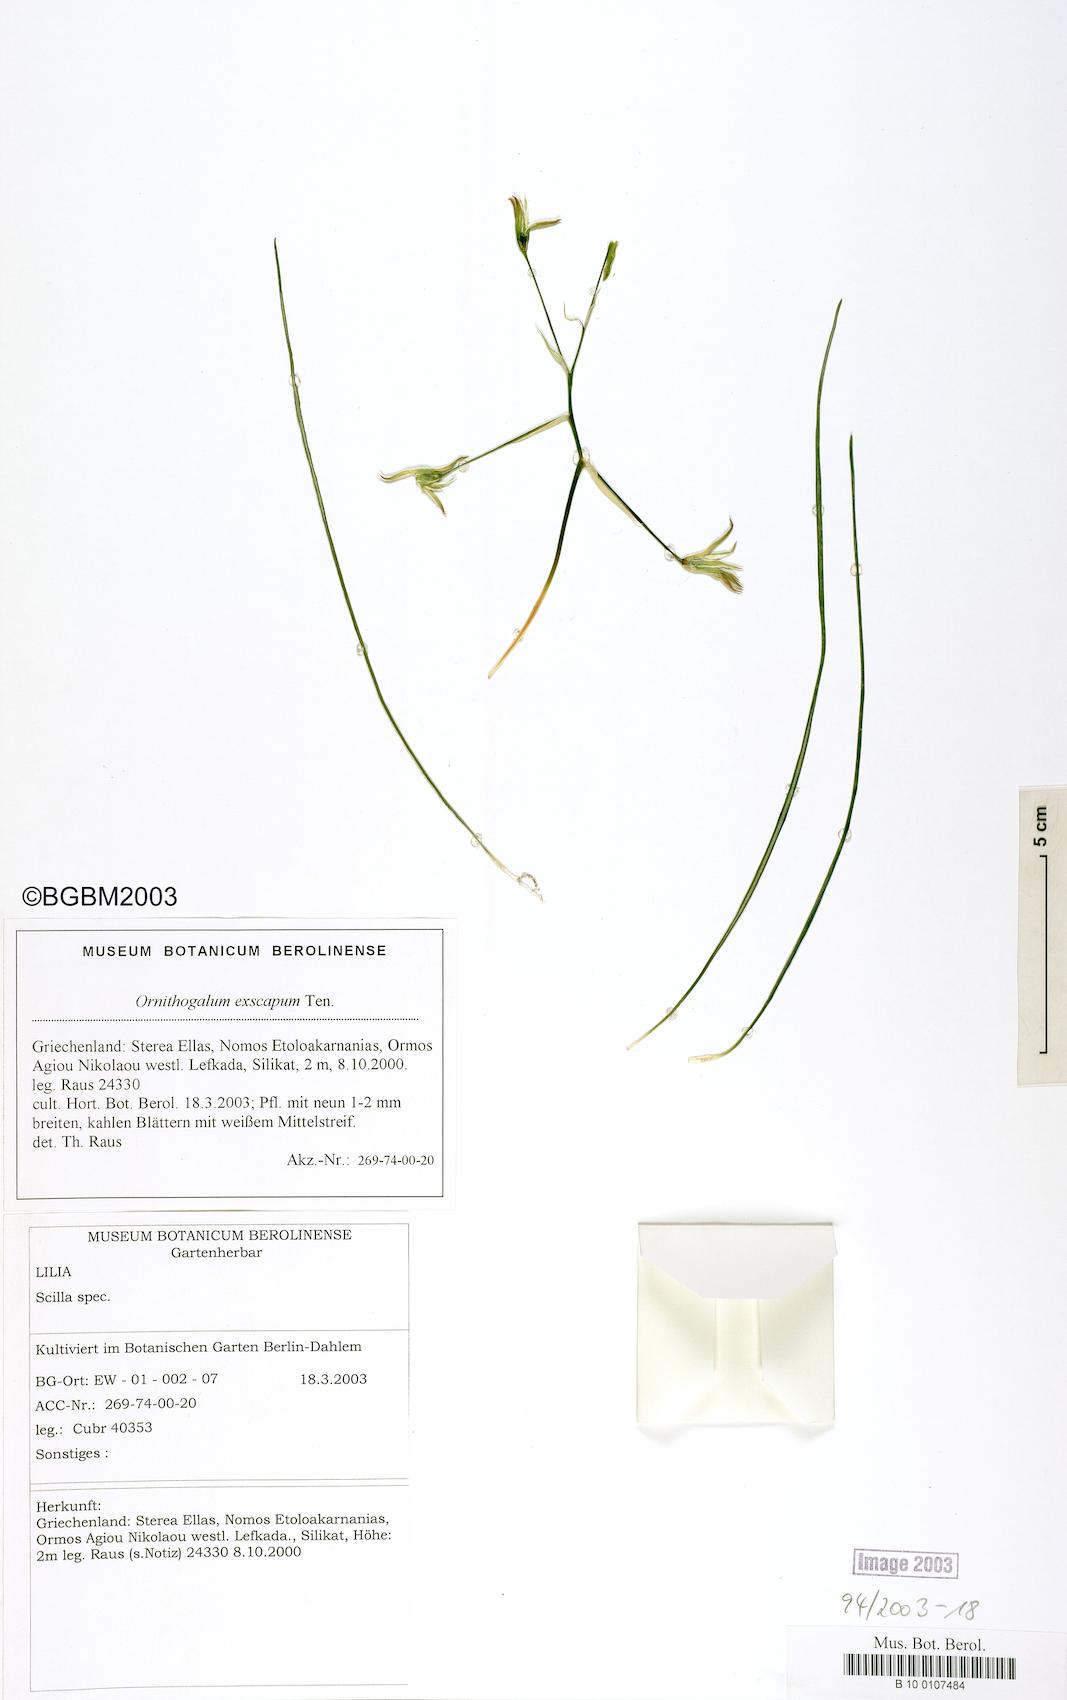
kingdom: Plantae
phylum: Tracheophyta
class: Liliopsida
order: Asparagales
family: Asparagaceae
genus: Ornithogalum
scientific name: Ornithogalum exscapum
